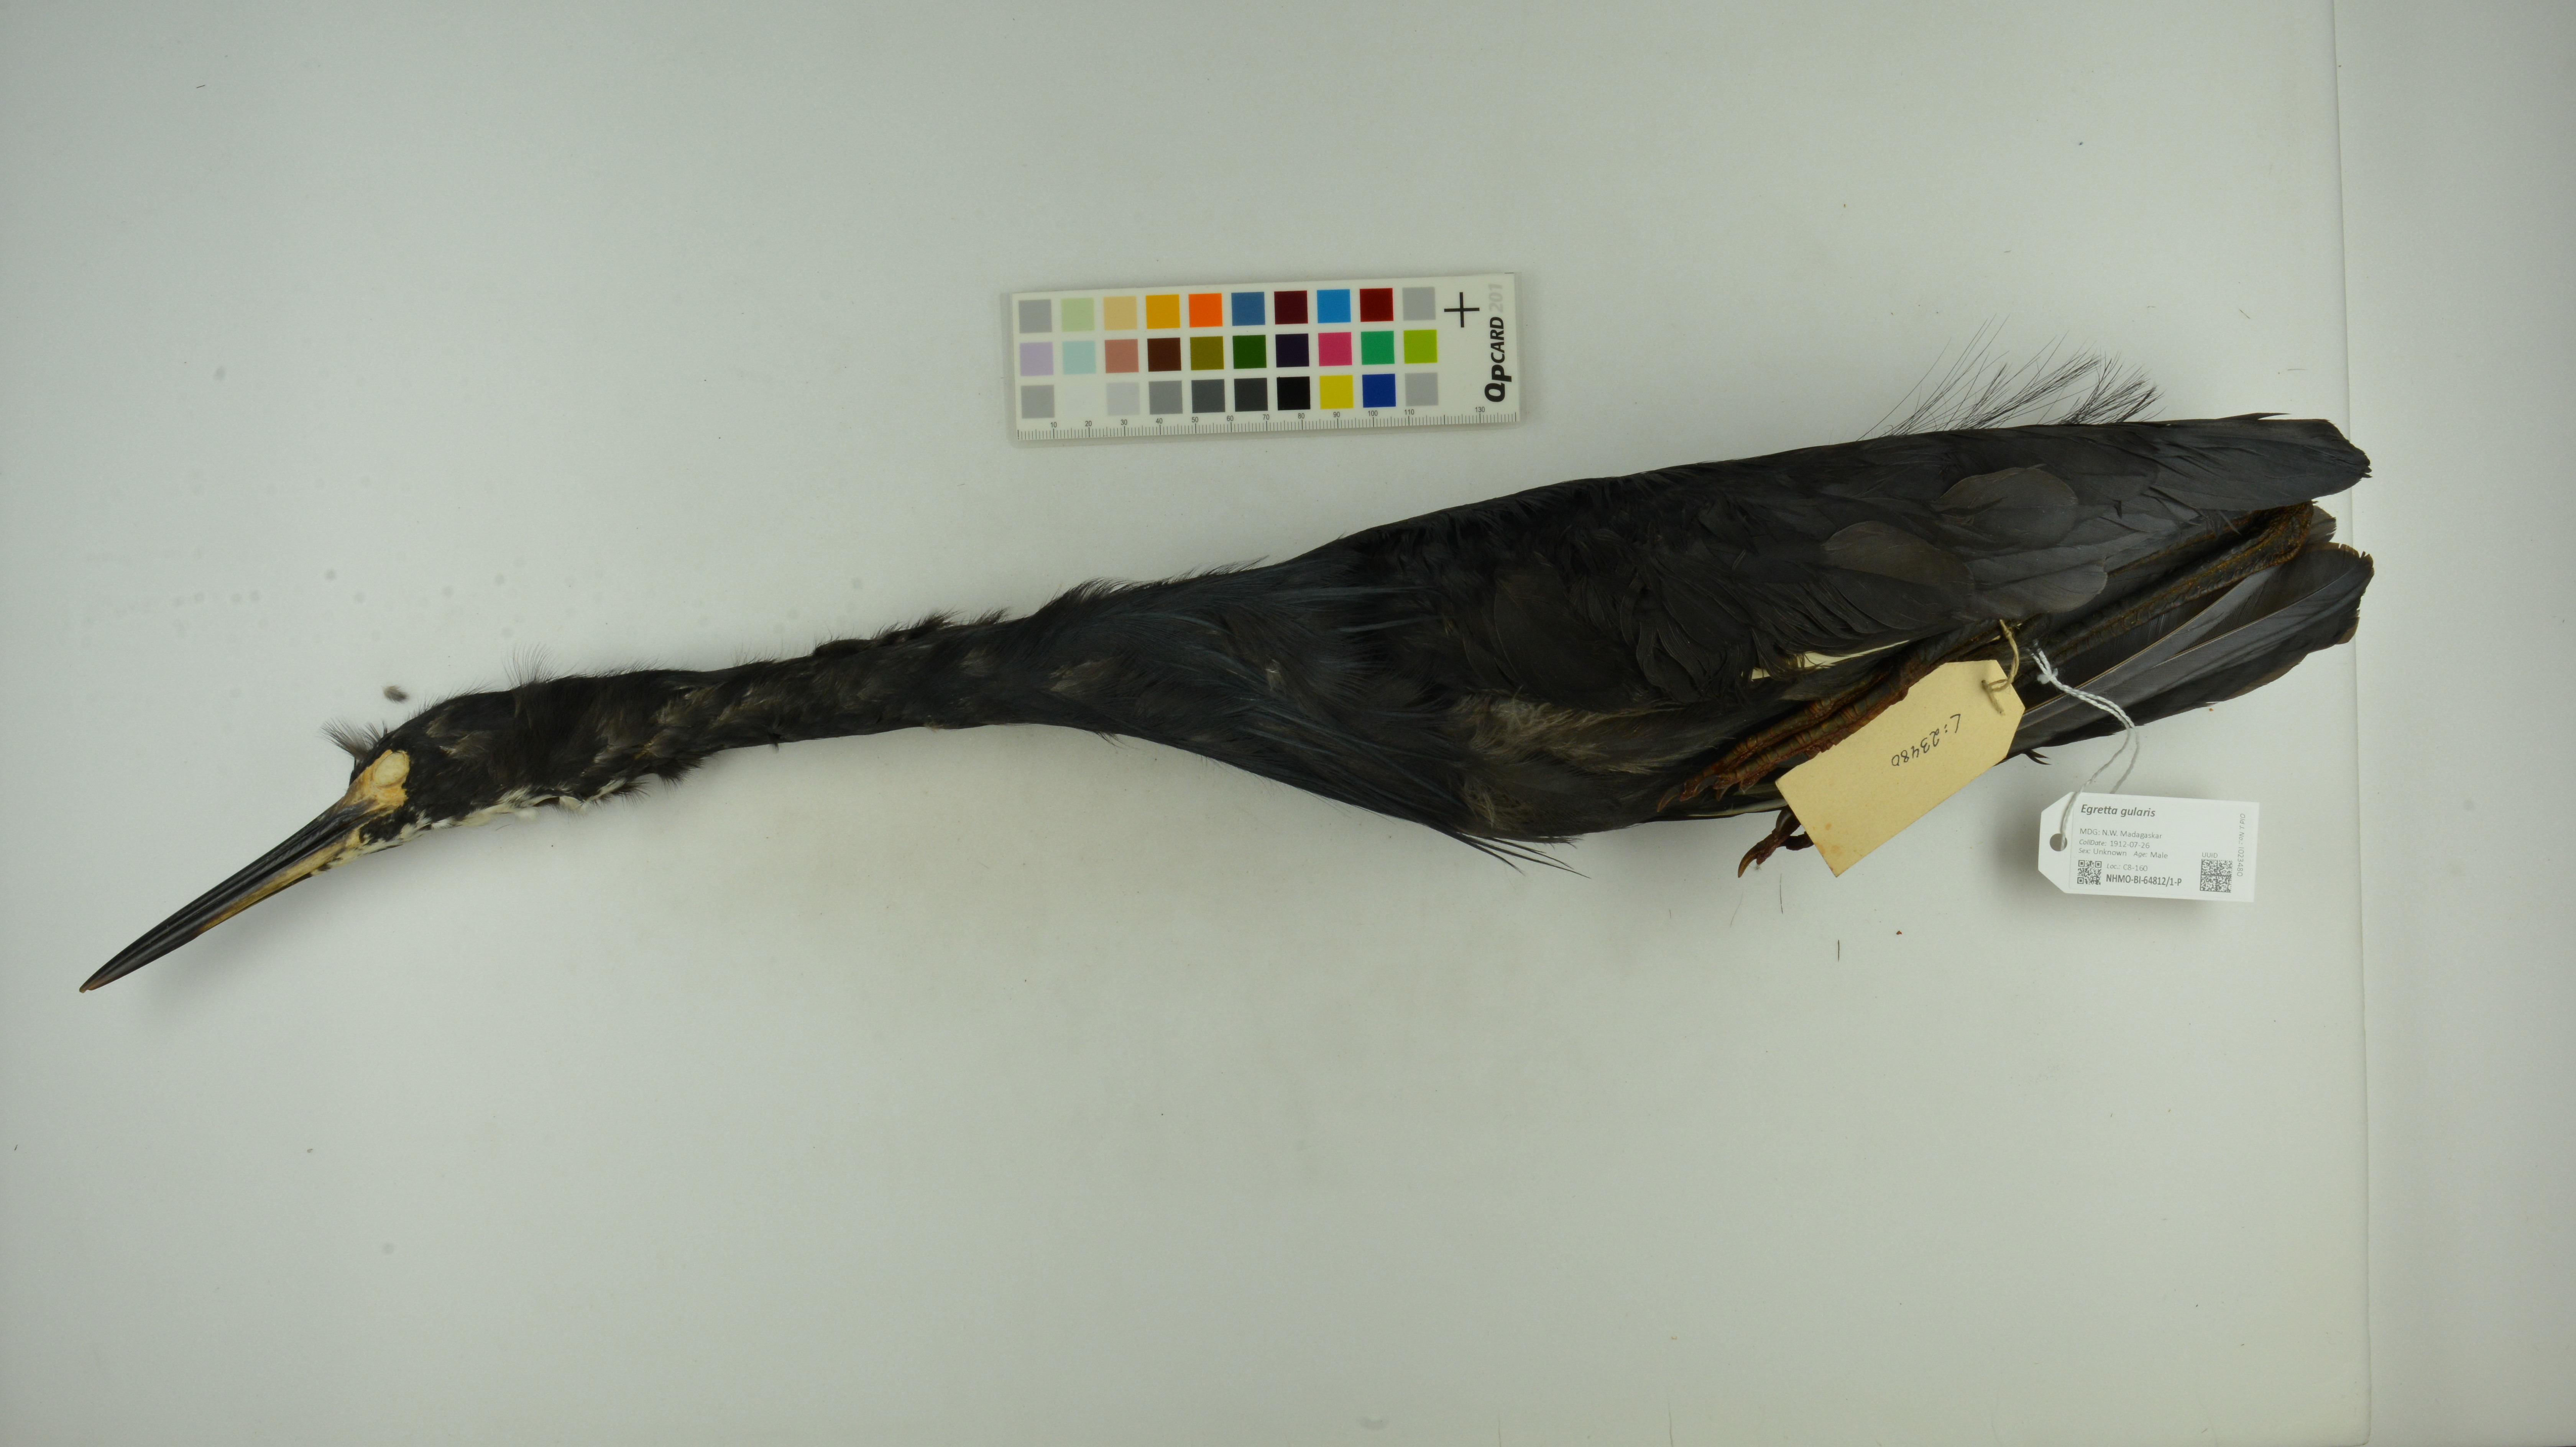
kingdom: Animalia
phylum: Chordata
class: Aves
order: Pelecaniformes
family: Ardeidae
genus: Egretta
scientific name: Egretta gularis
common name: Western reef-heron
